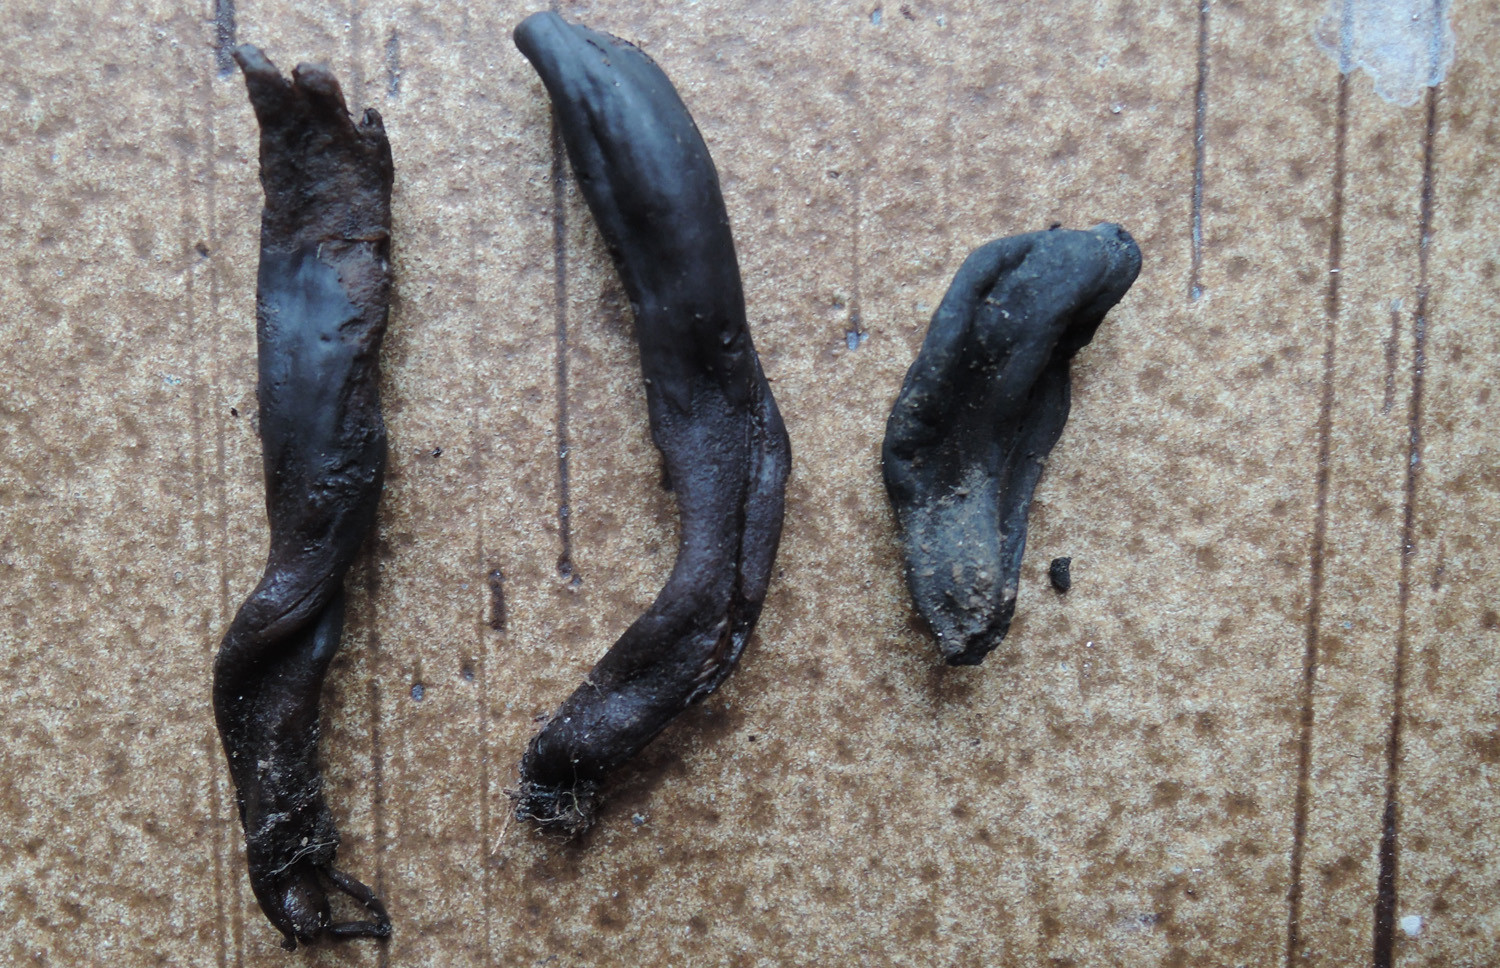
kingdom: Fungi
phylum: Ascomycota
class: Geoglossomycetes
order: Geoglossales
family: Geoglossaceae
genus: Geoglossum
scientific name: Geoglossum atropurpureum
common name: purpursort farvetunge
